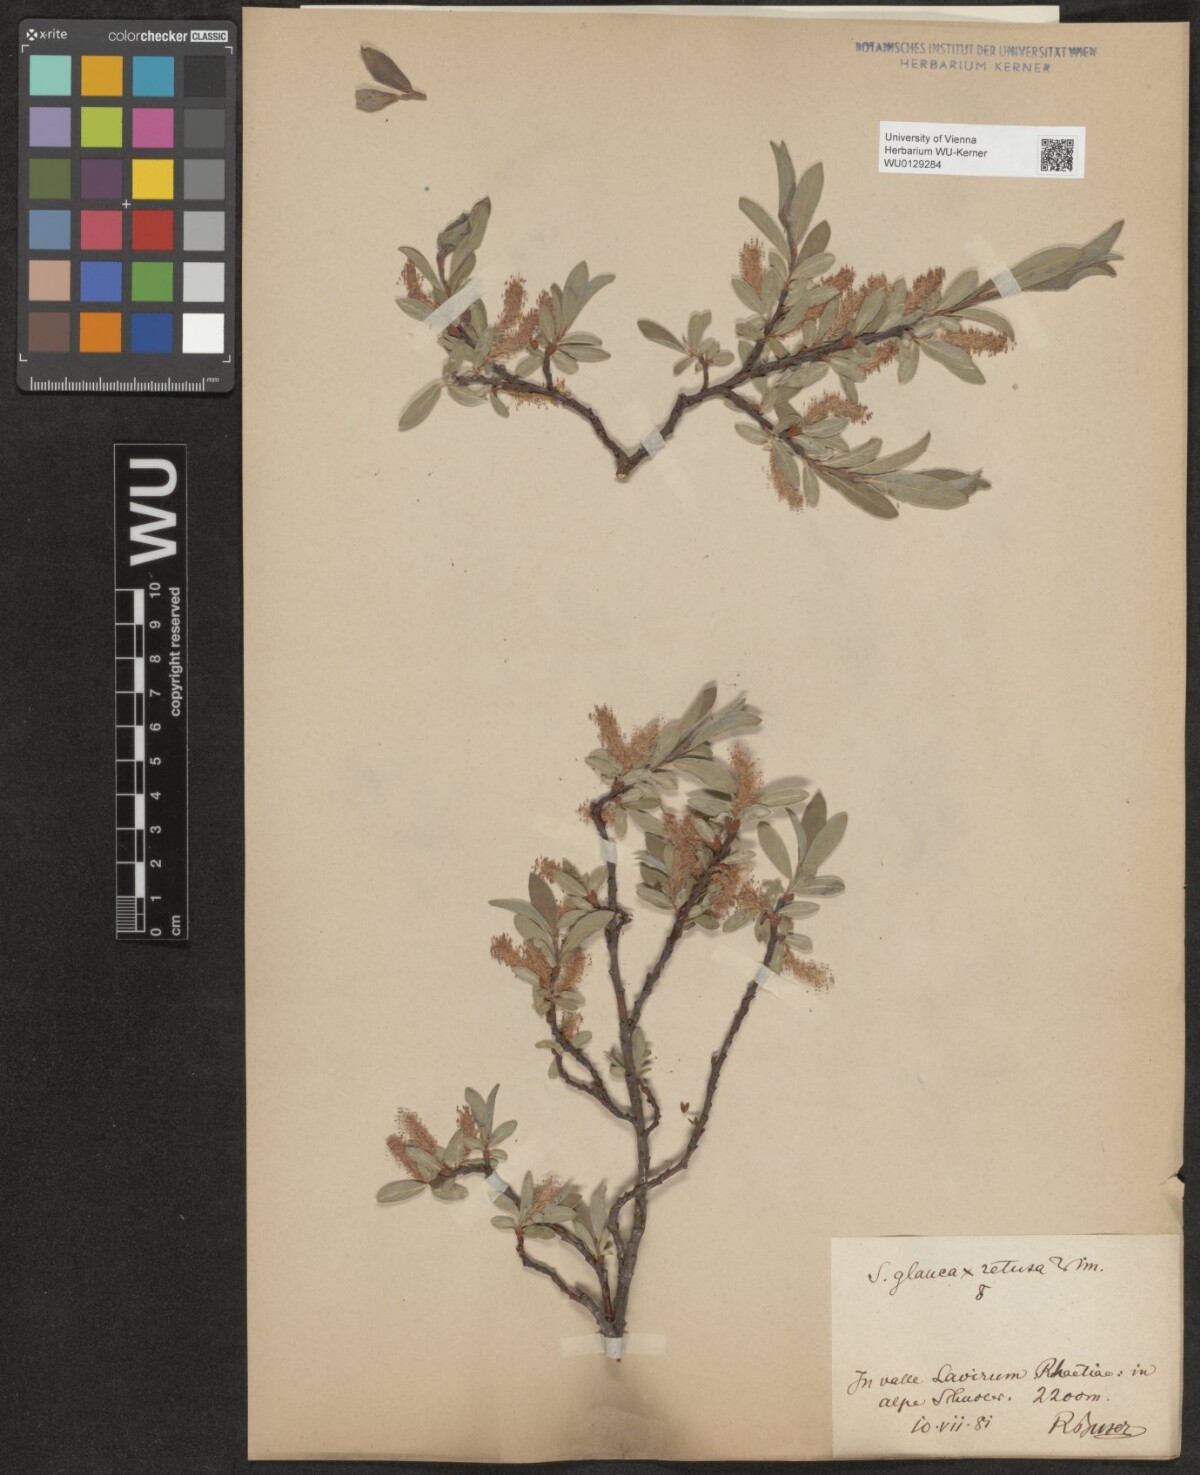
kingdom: Plantae
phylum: Tracheophyta
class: Magnoliopsida
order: Malpighiales
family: Salicaceae
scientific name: Salicaceae
